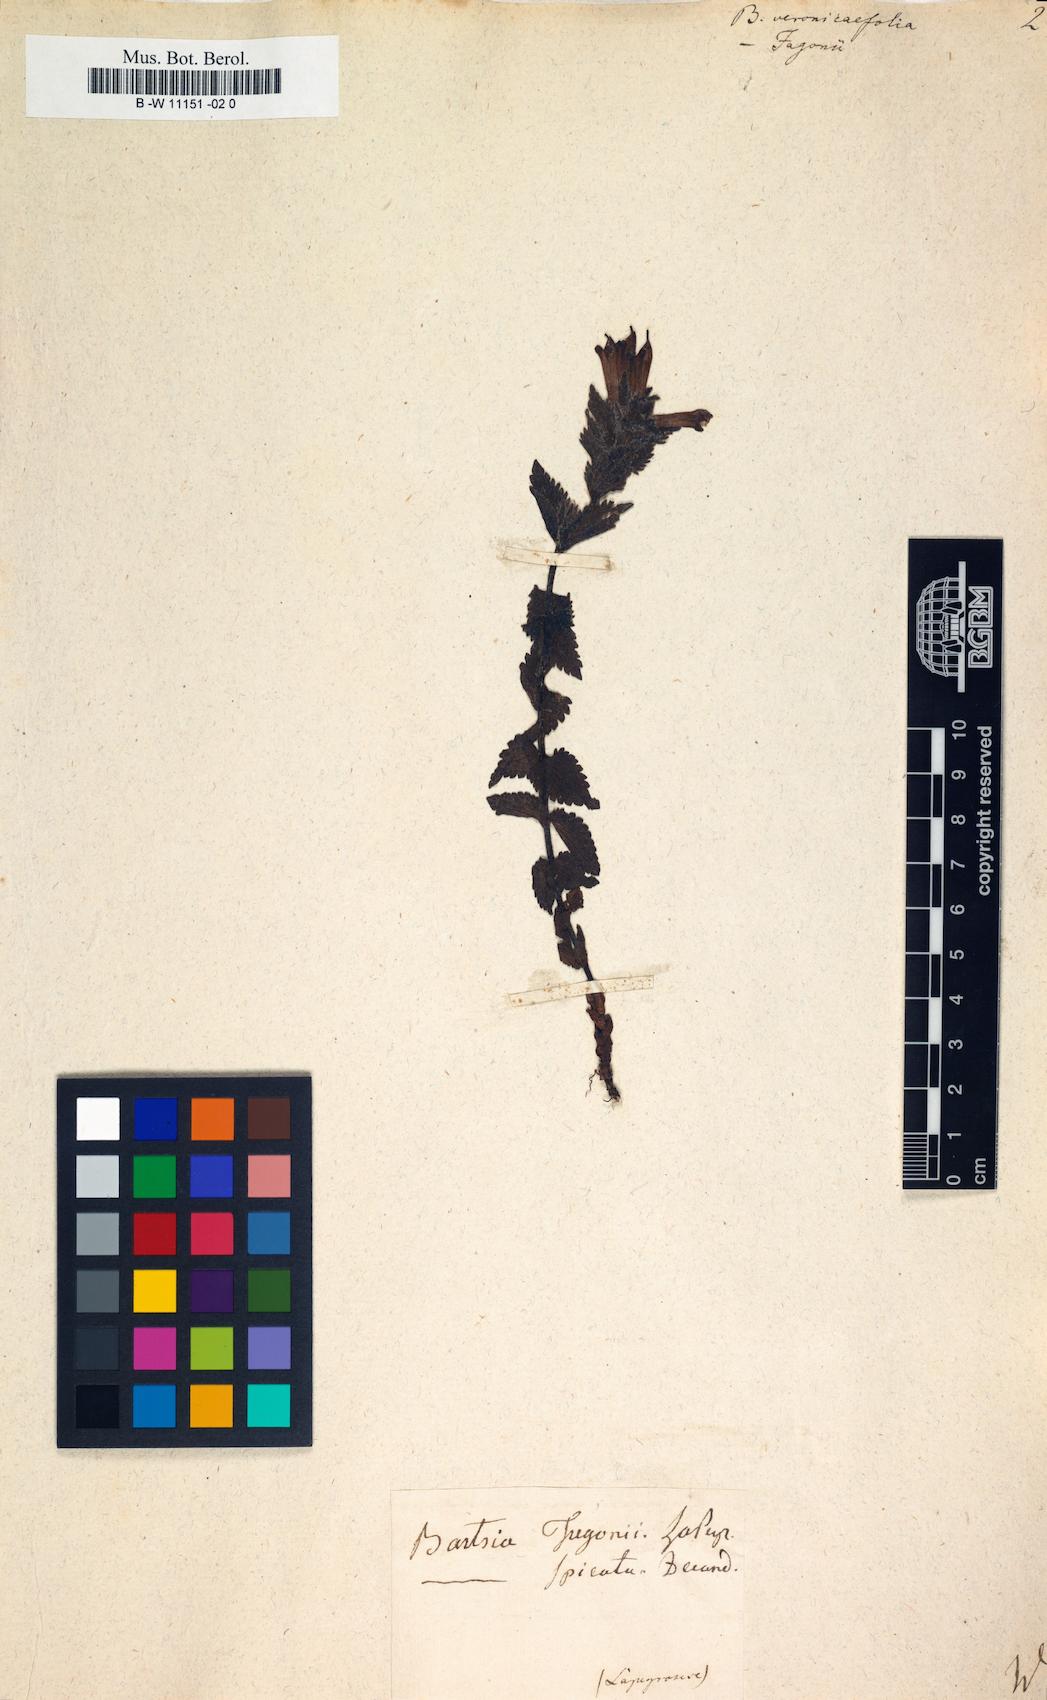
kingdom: Plantae
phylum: Tracheophyta
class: Magnoliopsida
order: Lamiales
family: Scrophulariaceae
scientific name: Scrophulariaceae
